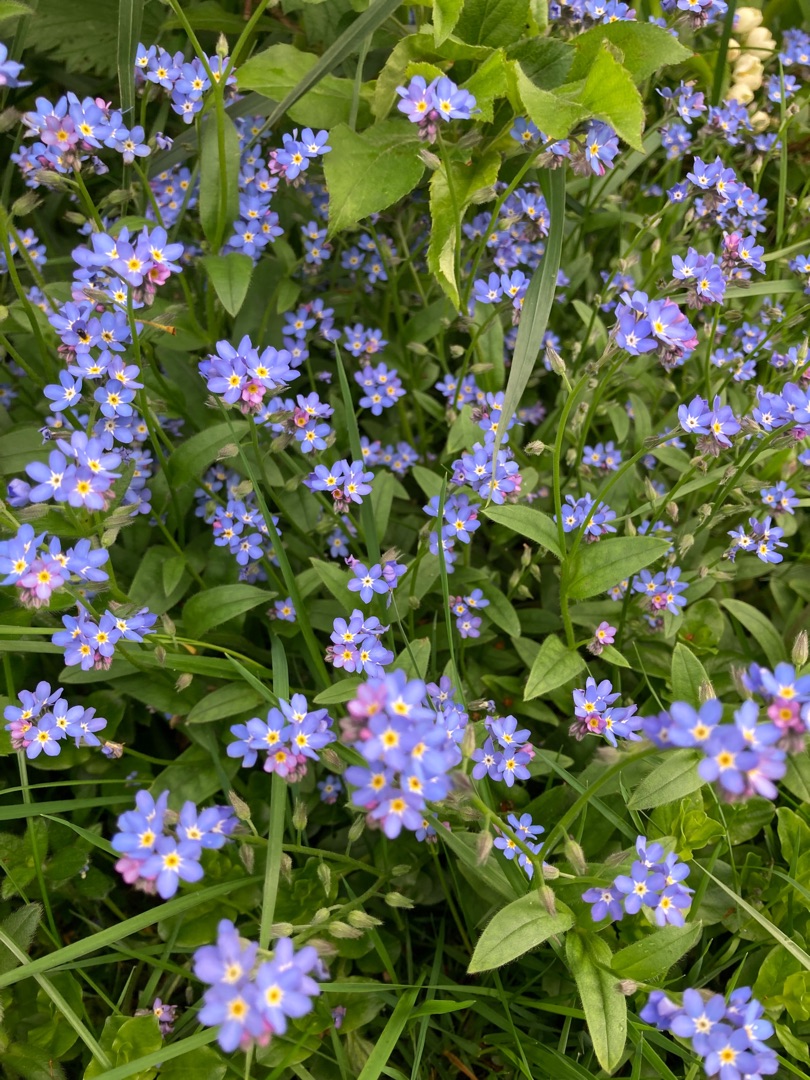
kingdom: Plantae
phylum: Tracheophyta
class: Magnoliopsida
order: Boraginales
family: Boraginaceae
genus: Myosotis
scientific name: Myosotis sylvatica
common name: Skov-forglemmigej
